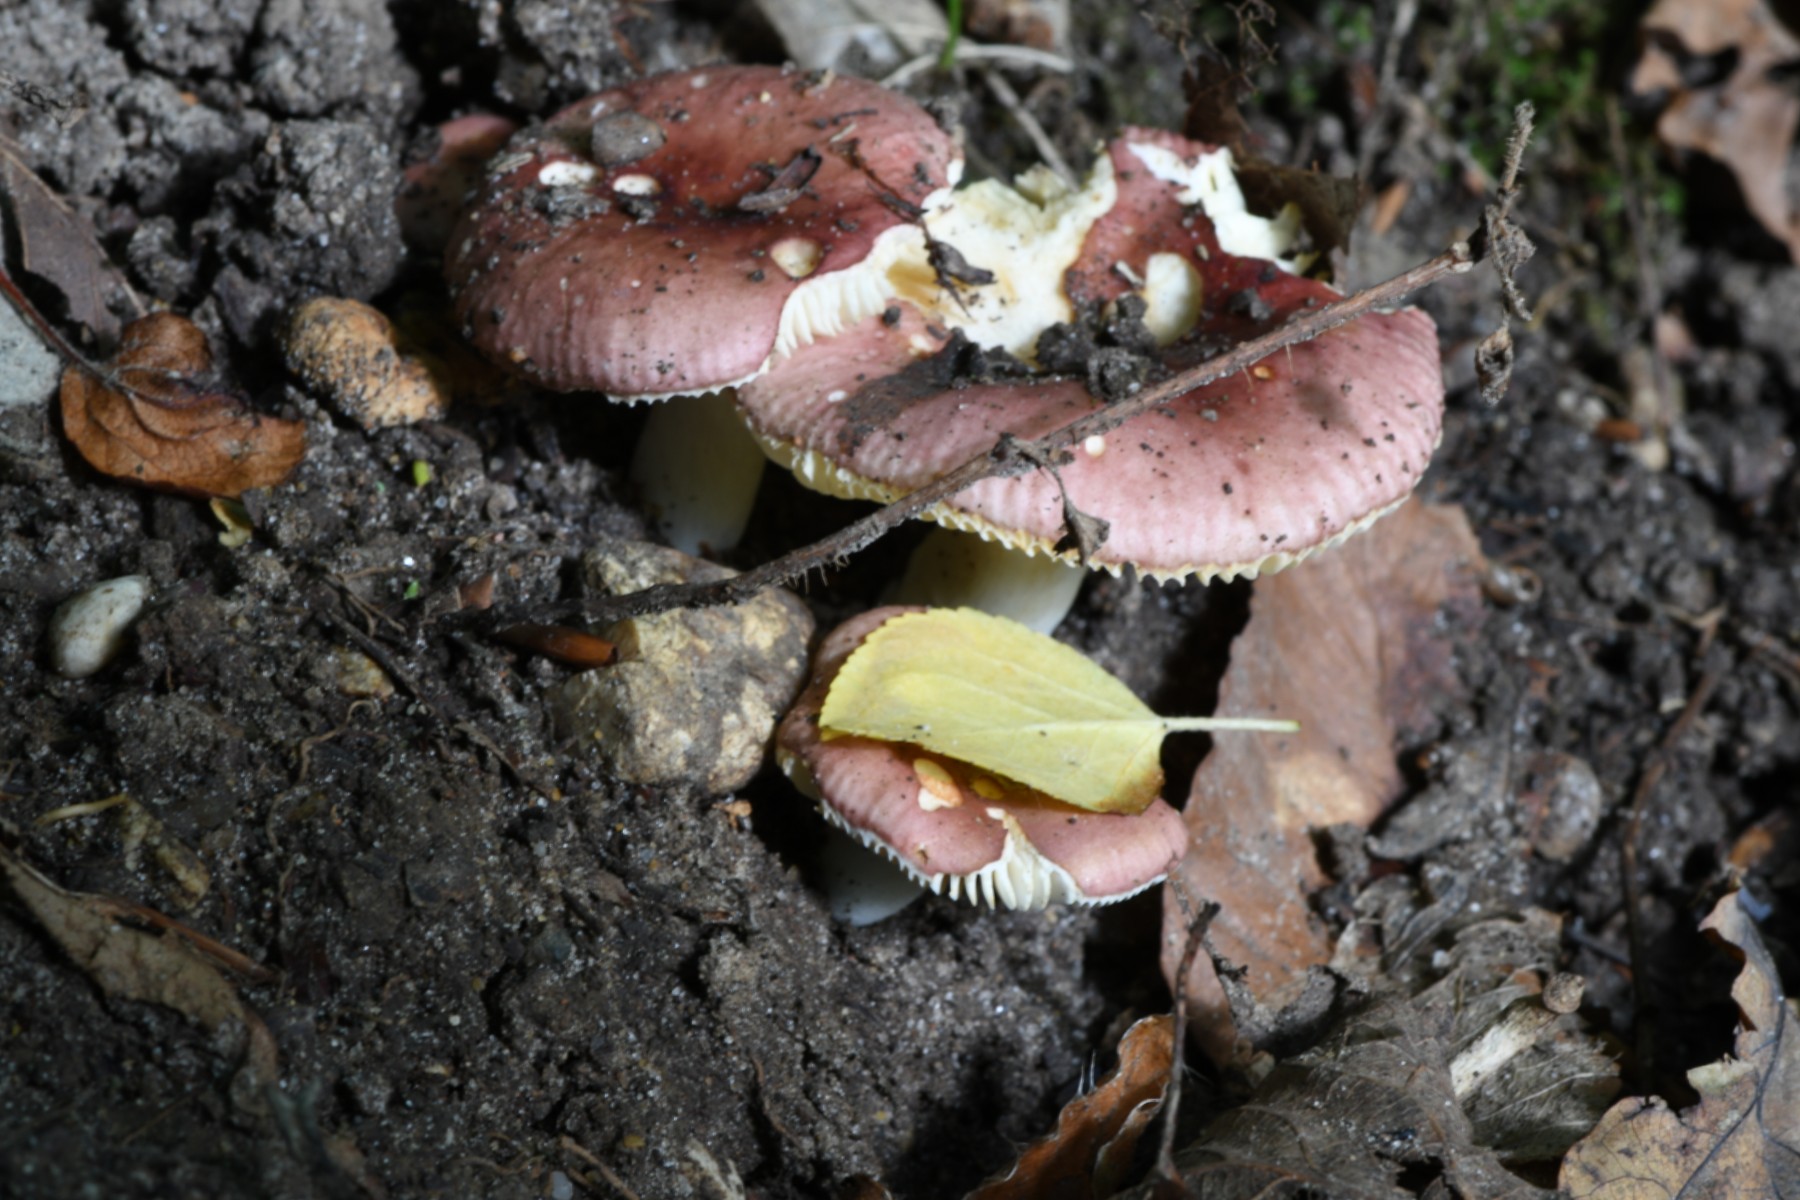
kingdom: Fungi
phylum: Basidiomycota
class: Agaricomycetes
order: Russulales
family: Russulaceae
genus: Russula
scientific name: Russula pelargonia
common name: pelargonie-skørhat
